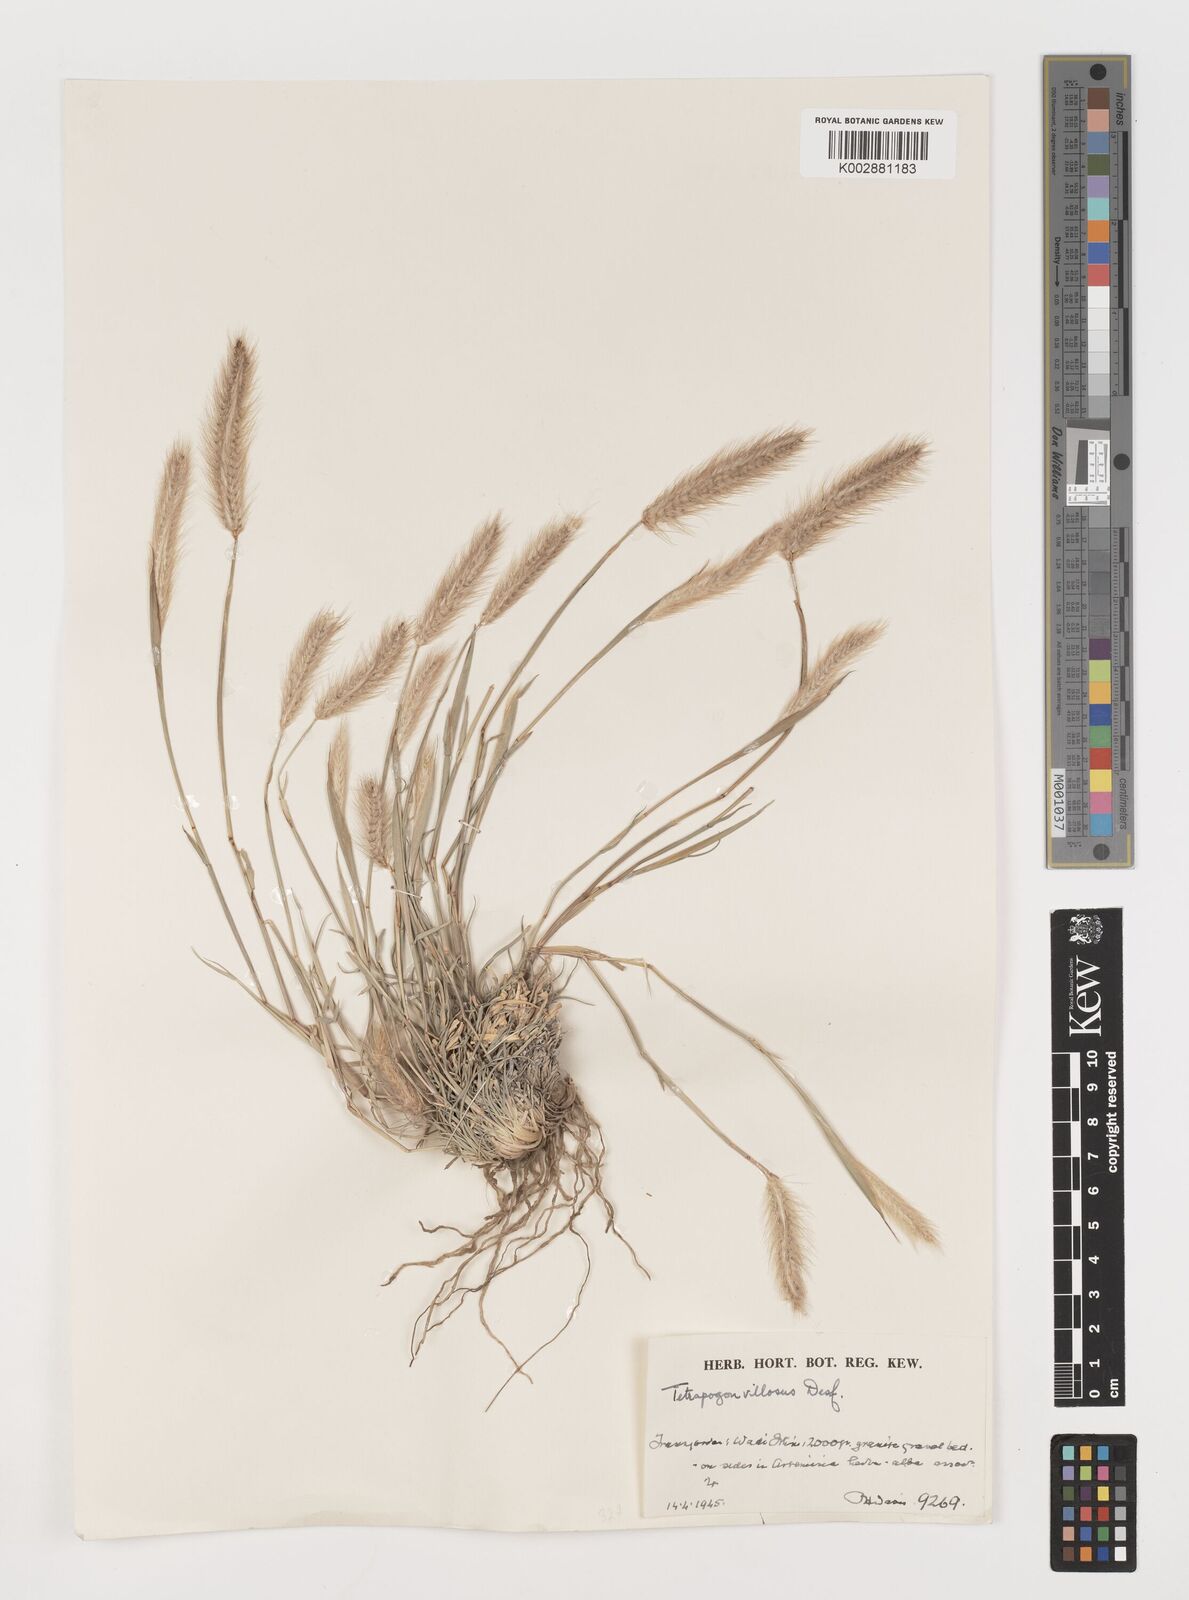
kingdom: Plantae
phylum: Tracheophyta
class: Liliopsida
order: Poales
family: Poaceae
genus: Tetrapogon
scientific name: Tetrapogon villosus
